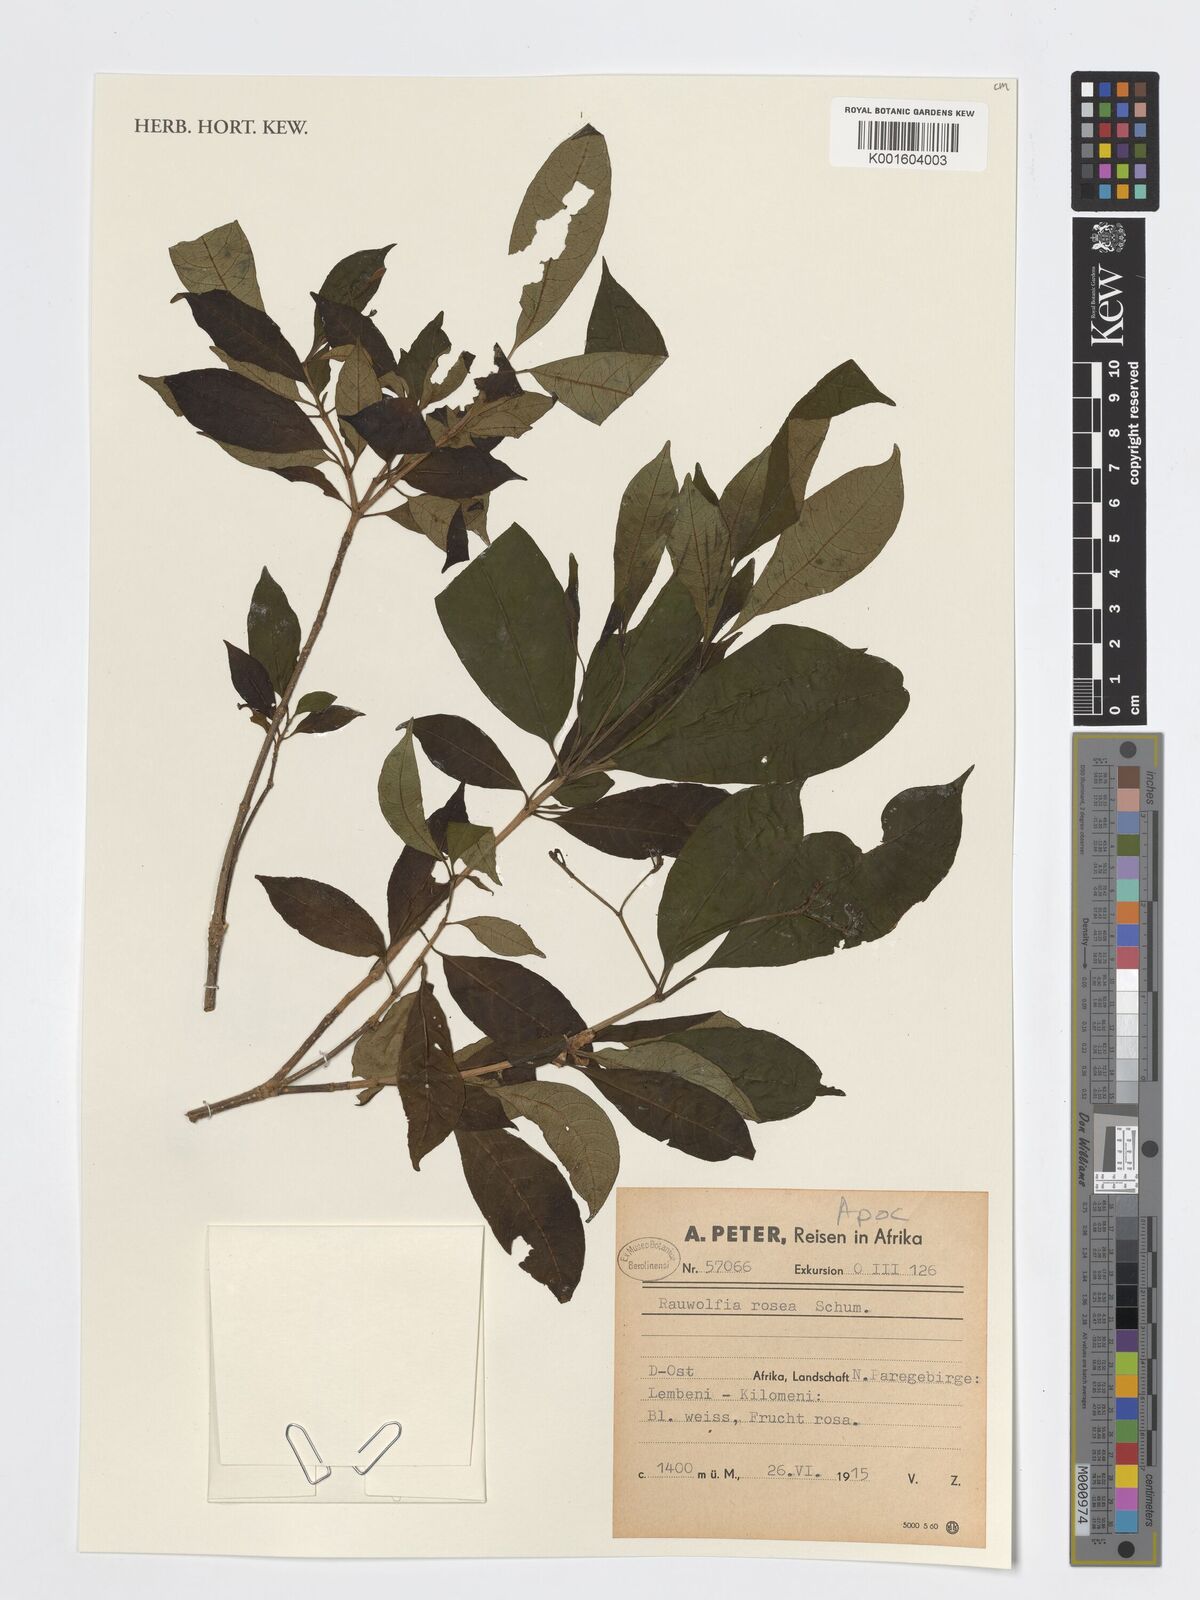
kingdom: Plantae
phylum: Tracheophyta
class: Magnoliopsida
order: Gentianales
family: Apocynaceae
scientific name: Apocynaceae
